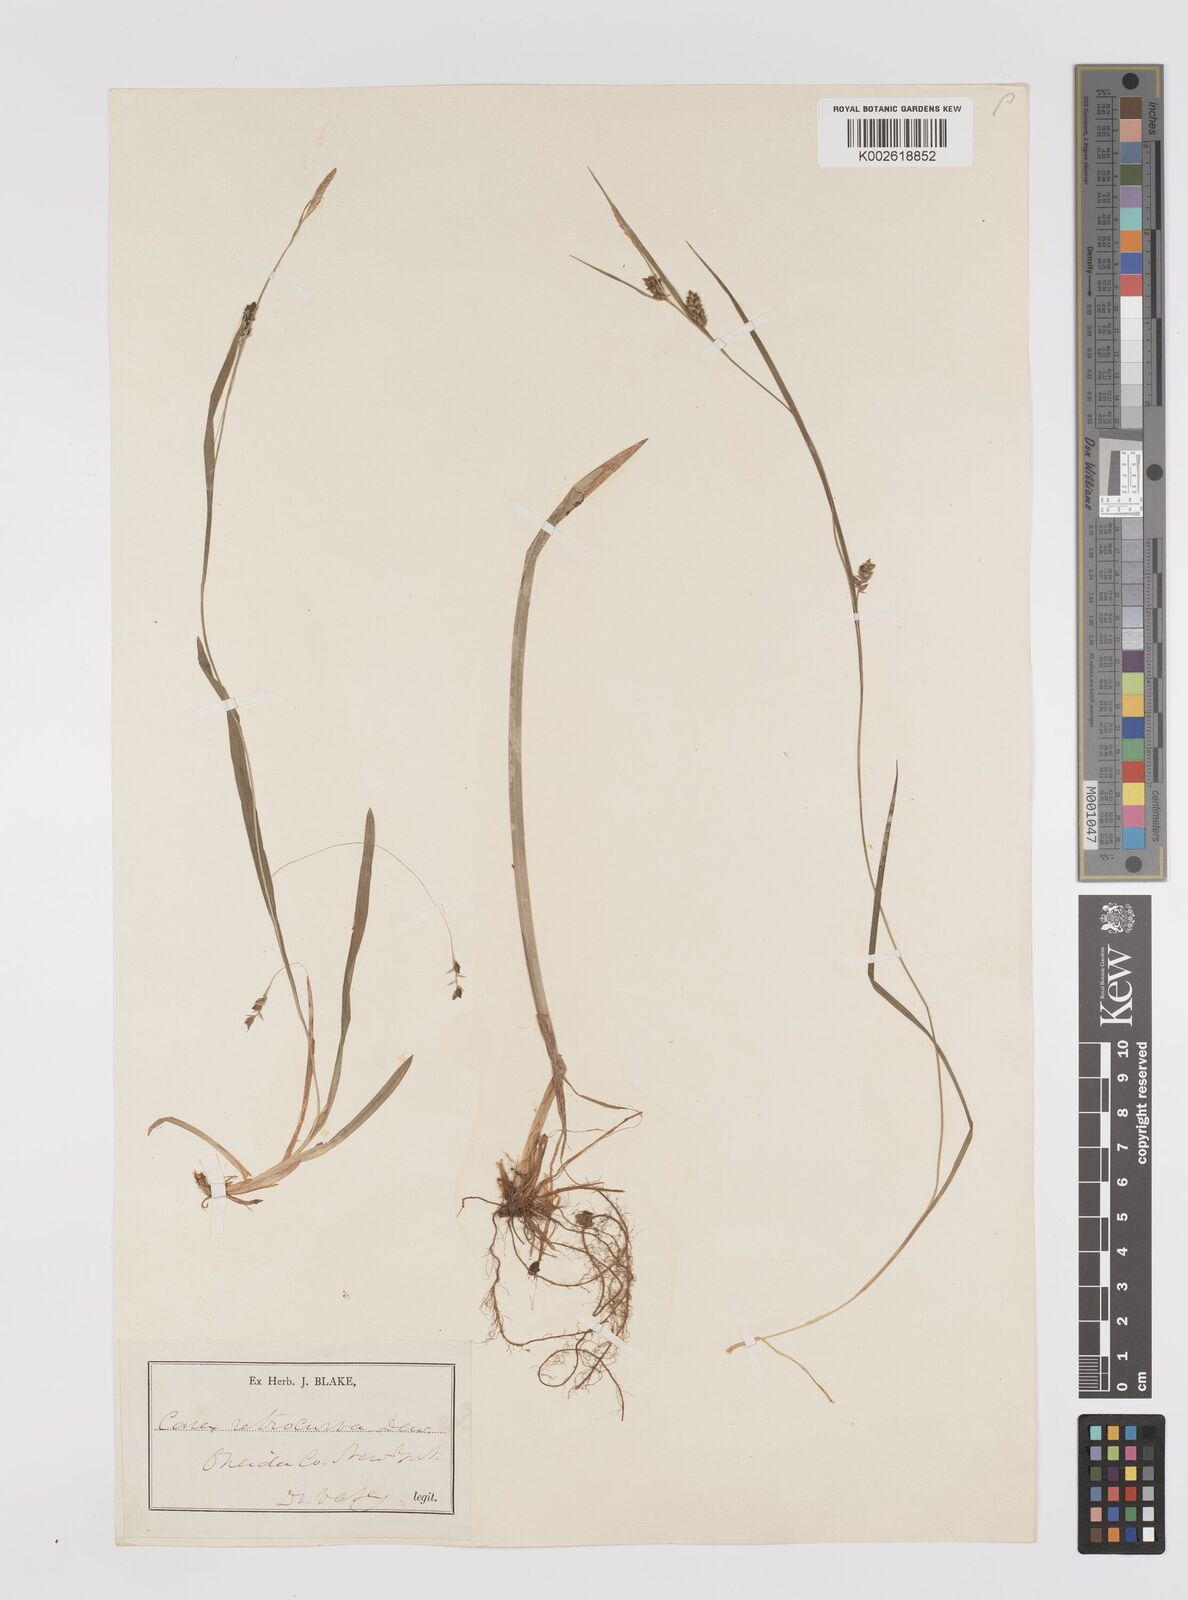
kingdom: Plantae
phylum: Tracheophyta
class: Liliopsida
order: Poales
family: Cyperaceae
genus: Carex
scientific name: Carex laxiculmis
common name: Spreading sedge
